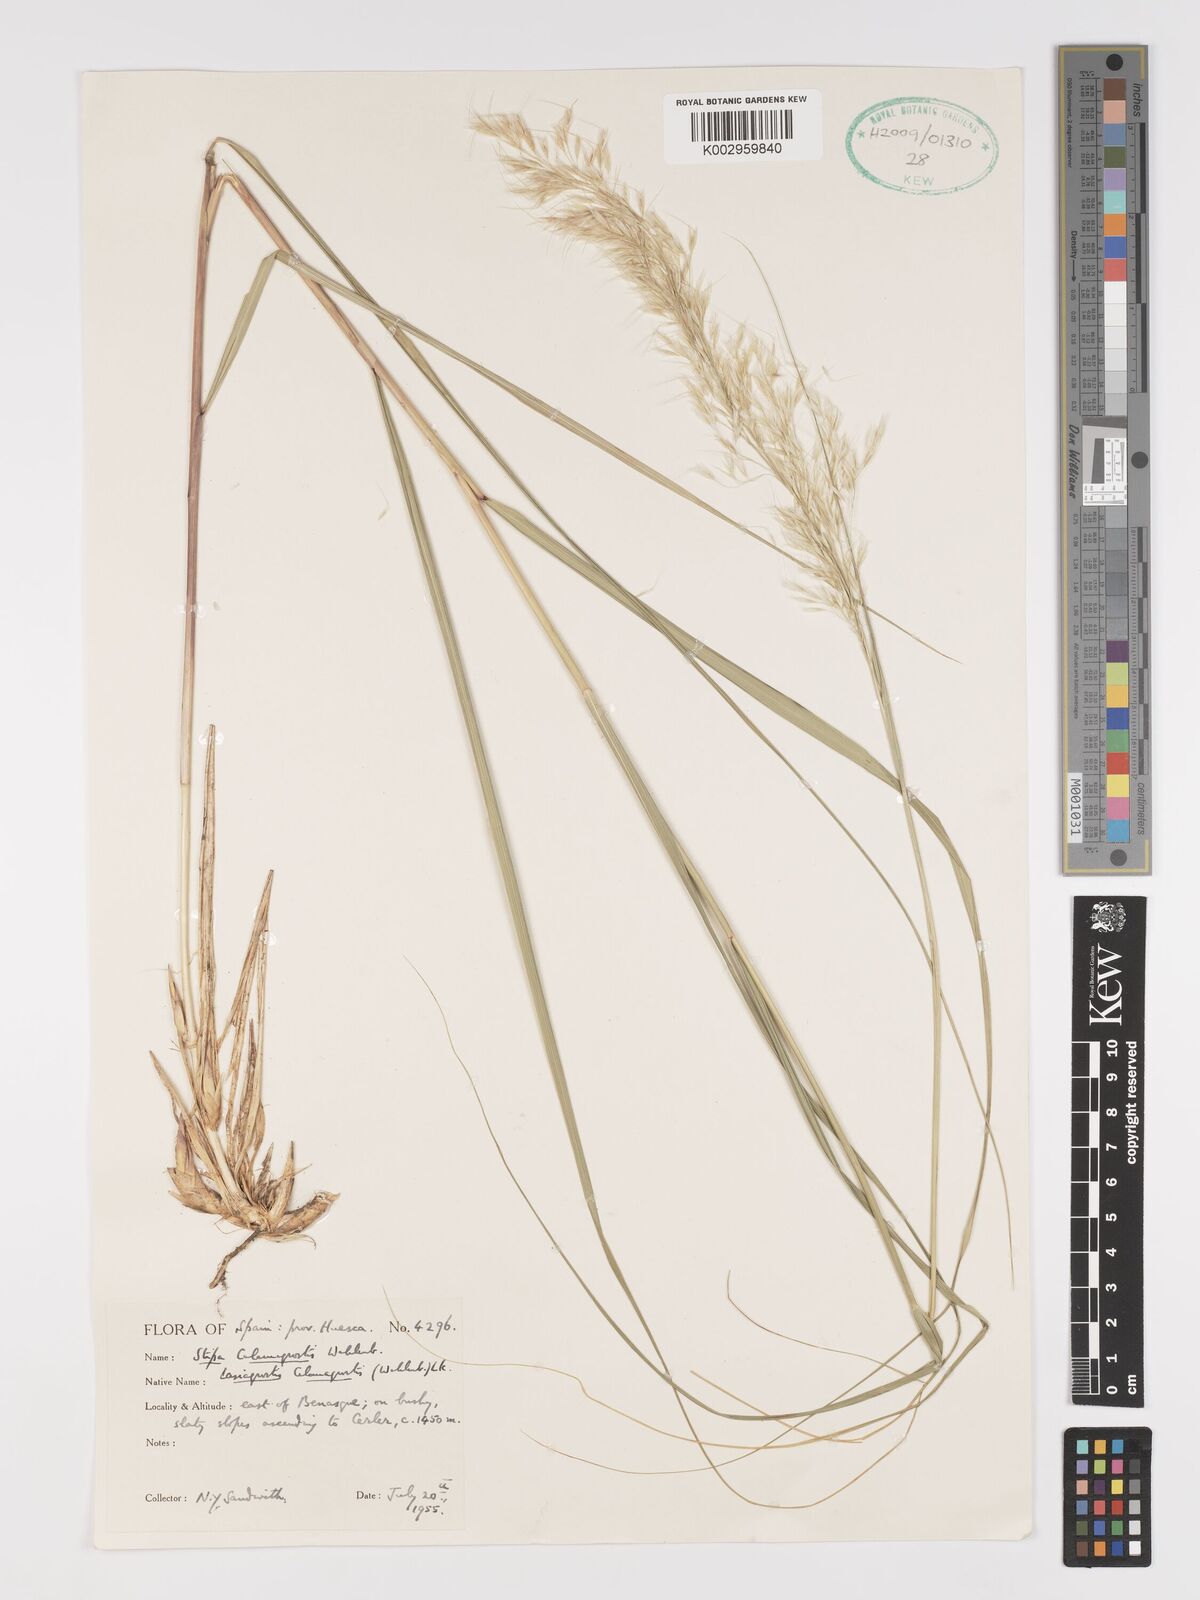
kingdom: Plantae
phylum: Tracheophyta
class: Liliopsida
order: Poales
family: Poaceae
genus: Achnatherum
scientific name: Achnatherum calamagrostis
